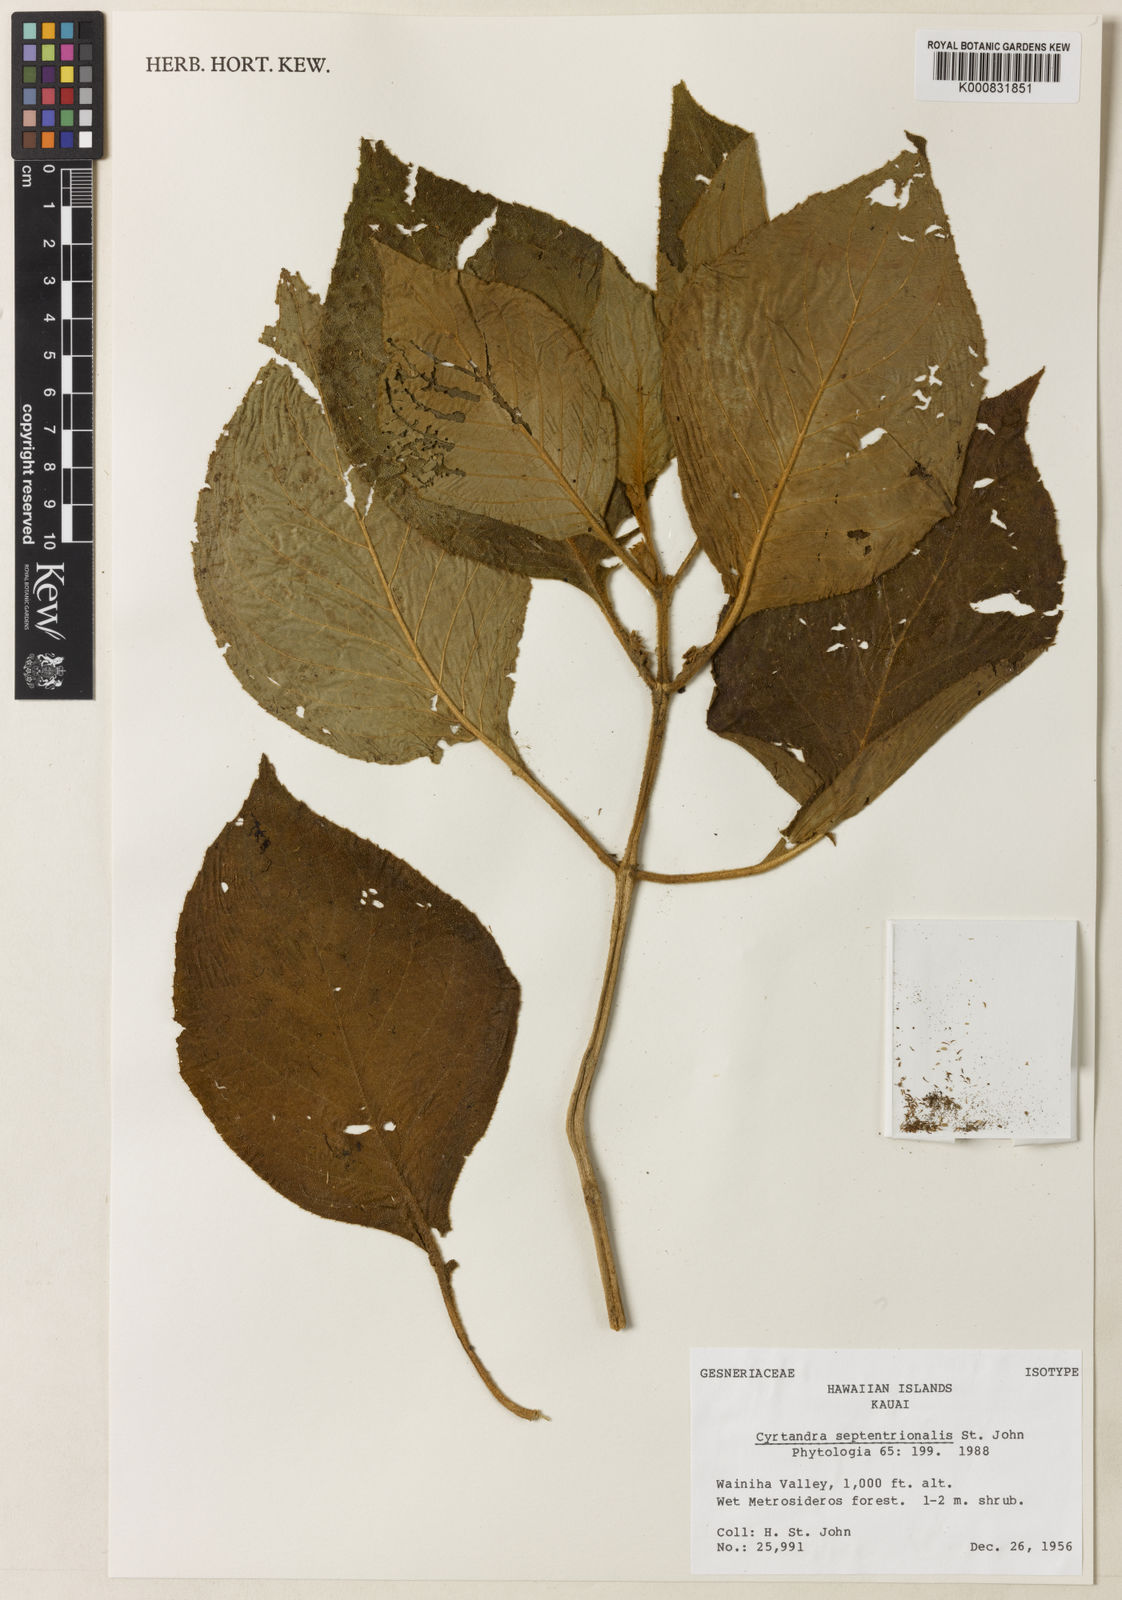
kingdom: Plantae
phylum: Tracheophyta
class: Magnoliopsida
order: Lamiales
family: Gesneriaceae
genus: Cyrtandra
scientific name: Cyrtandra kealiae
